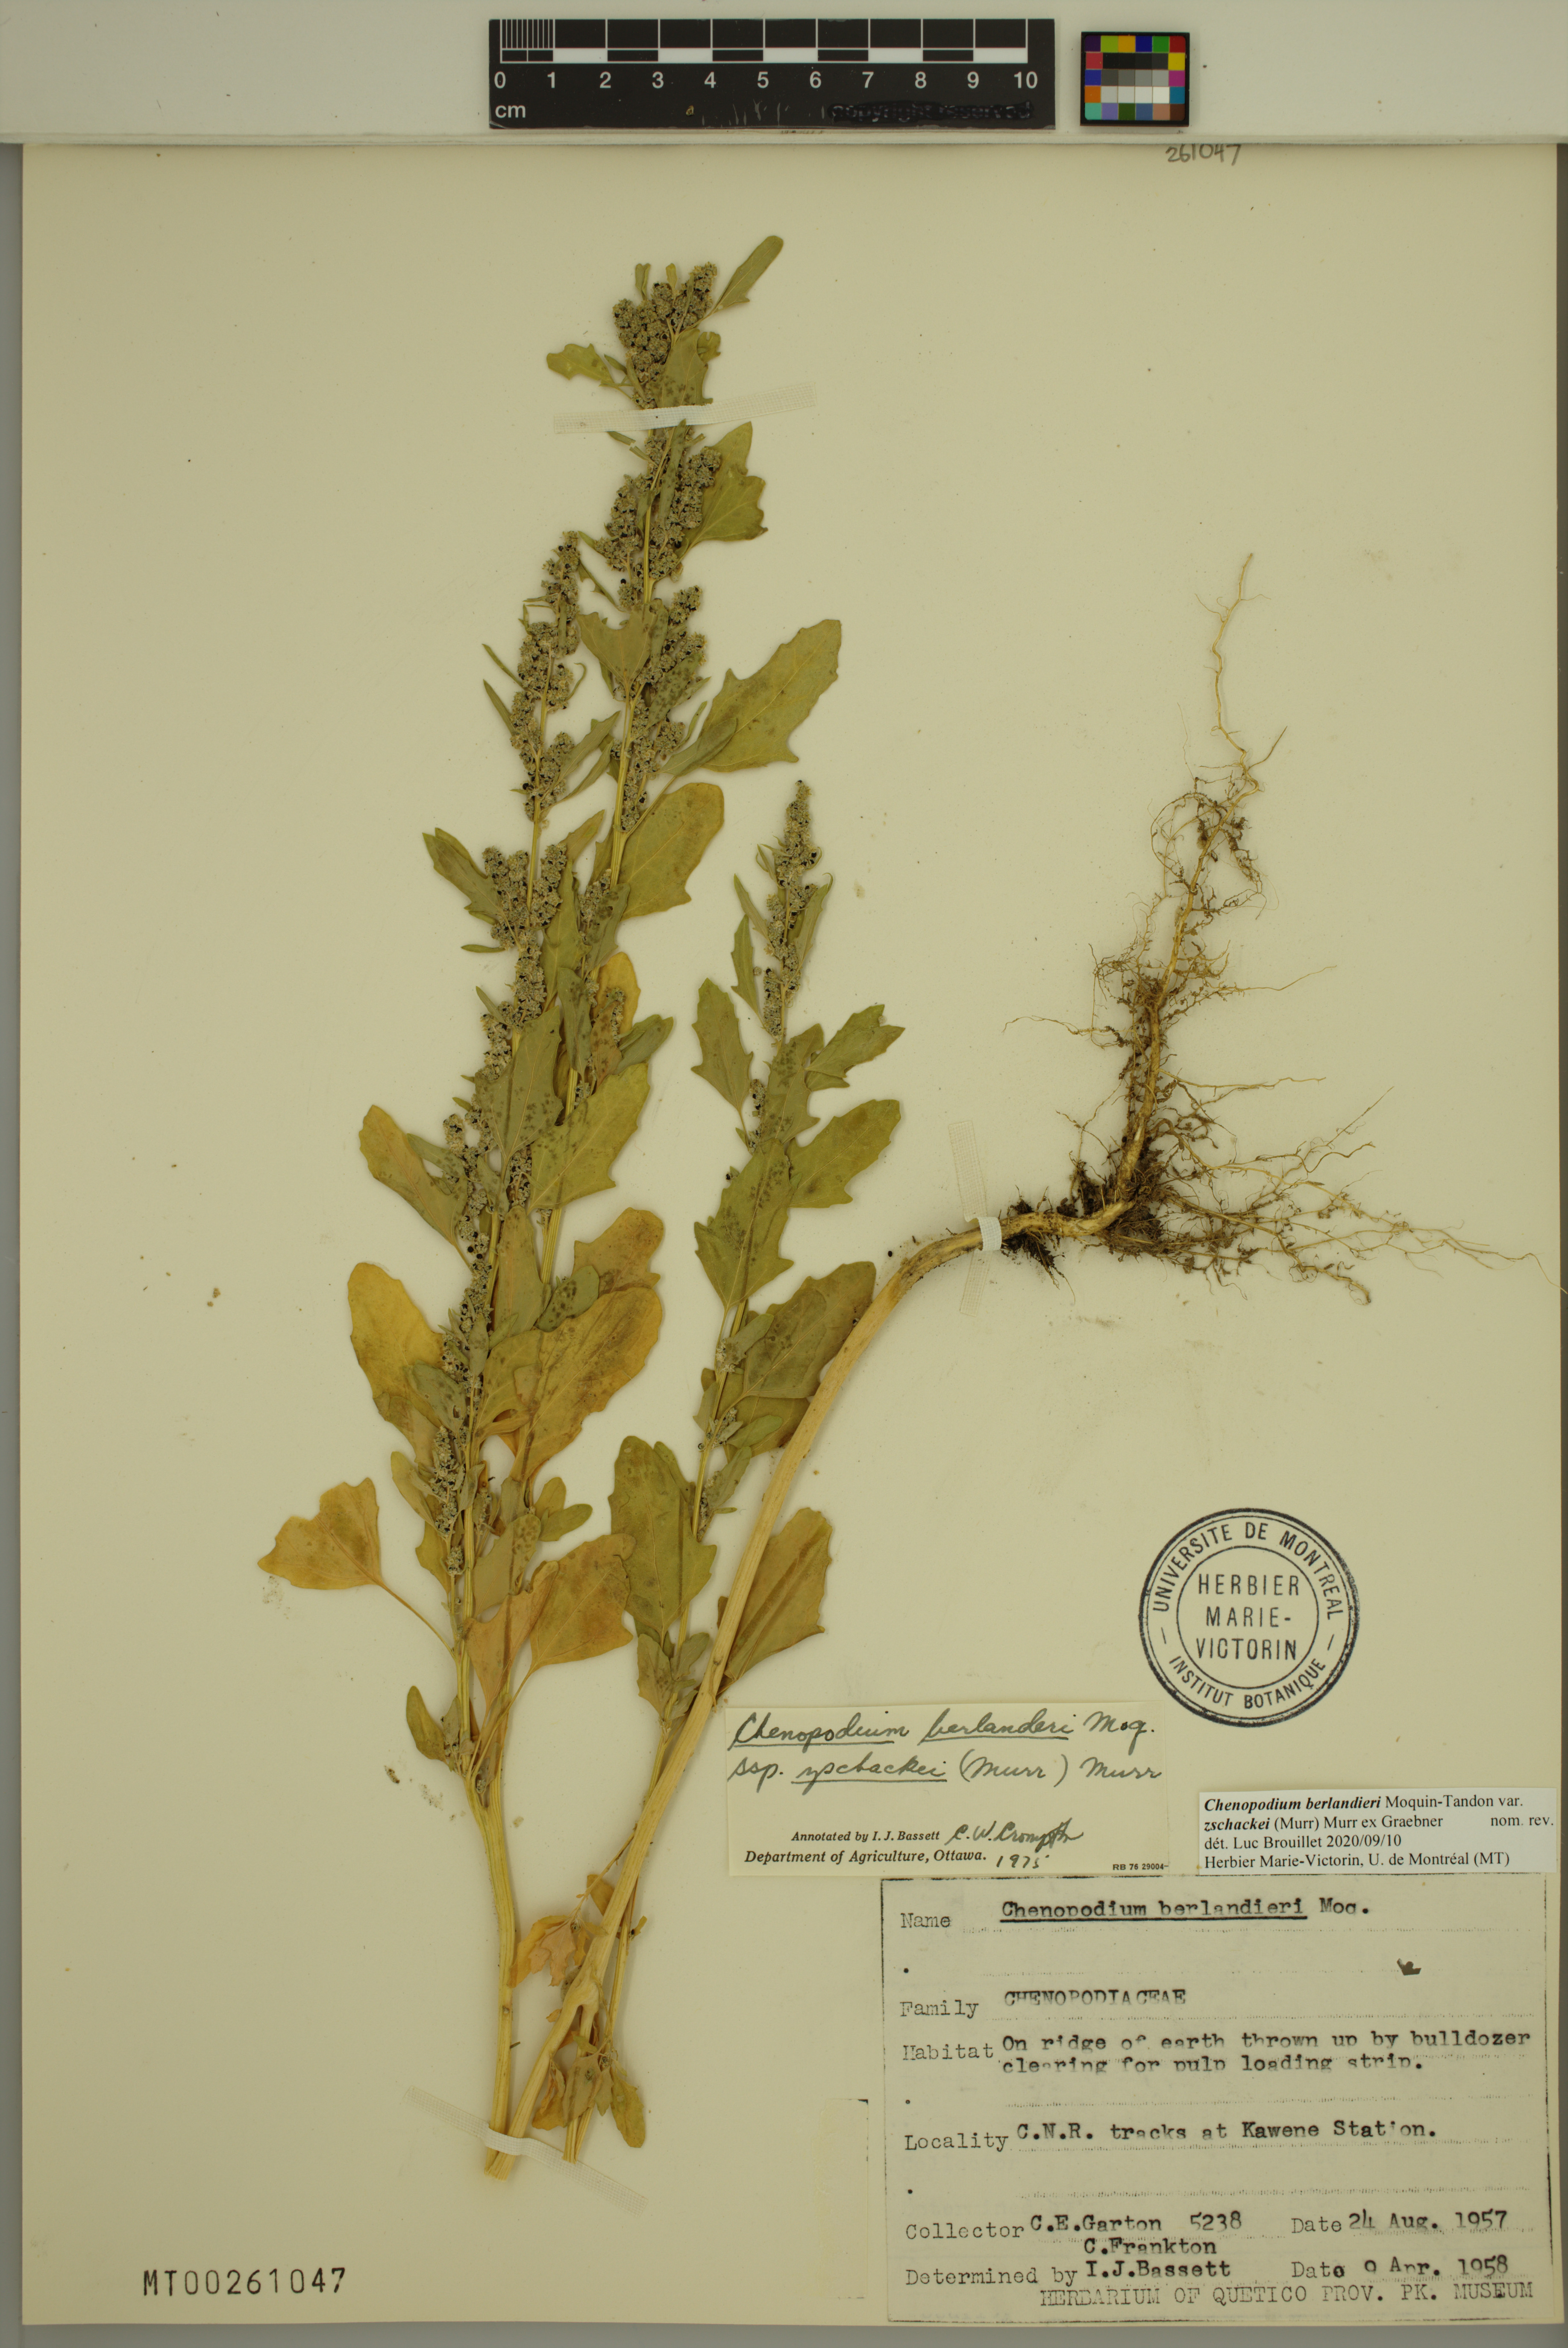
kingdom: Plantae
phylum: Tracheophyta
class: Magnoliopsida
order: Caryophyllales
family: Amaranthaceae
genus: Chenopodium
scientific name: Chenopodium berlandieri
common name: Pit-seed goosefoot
